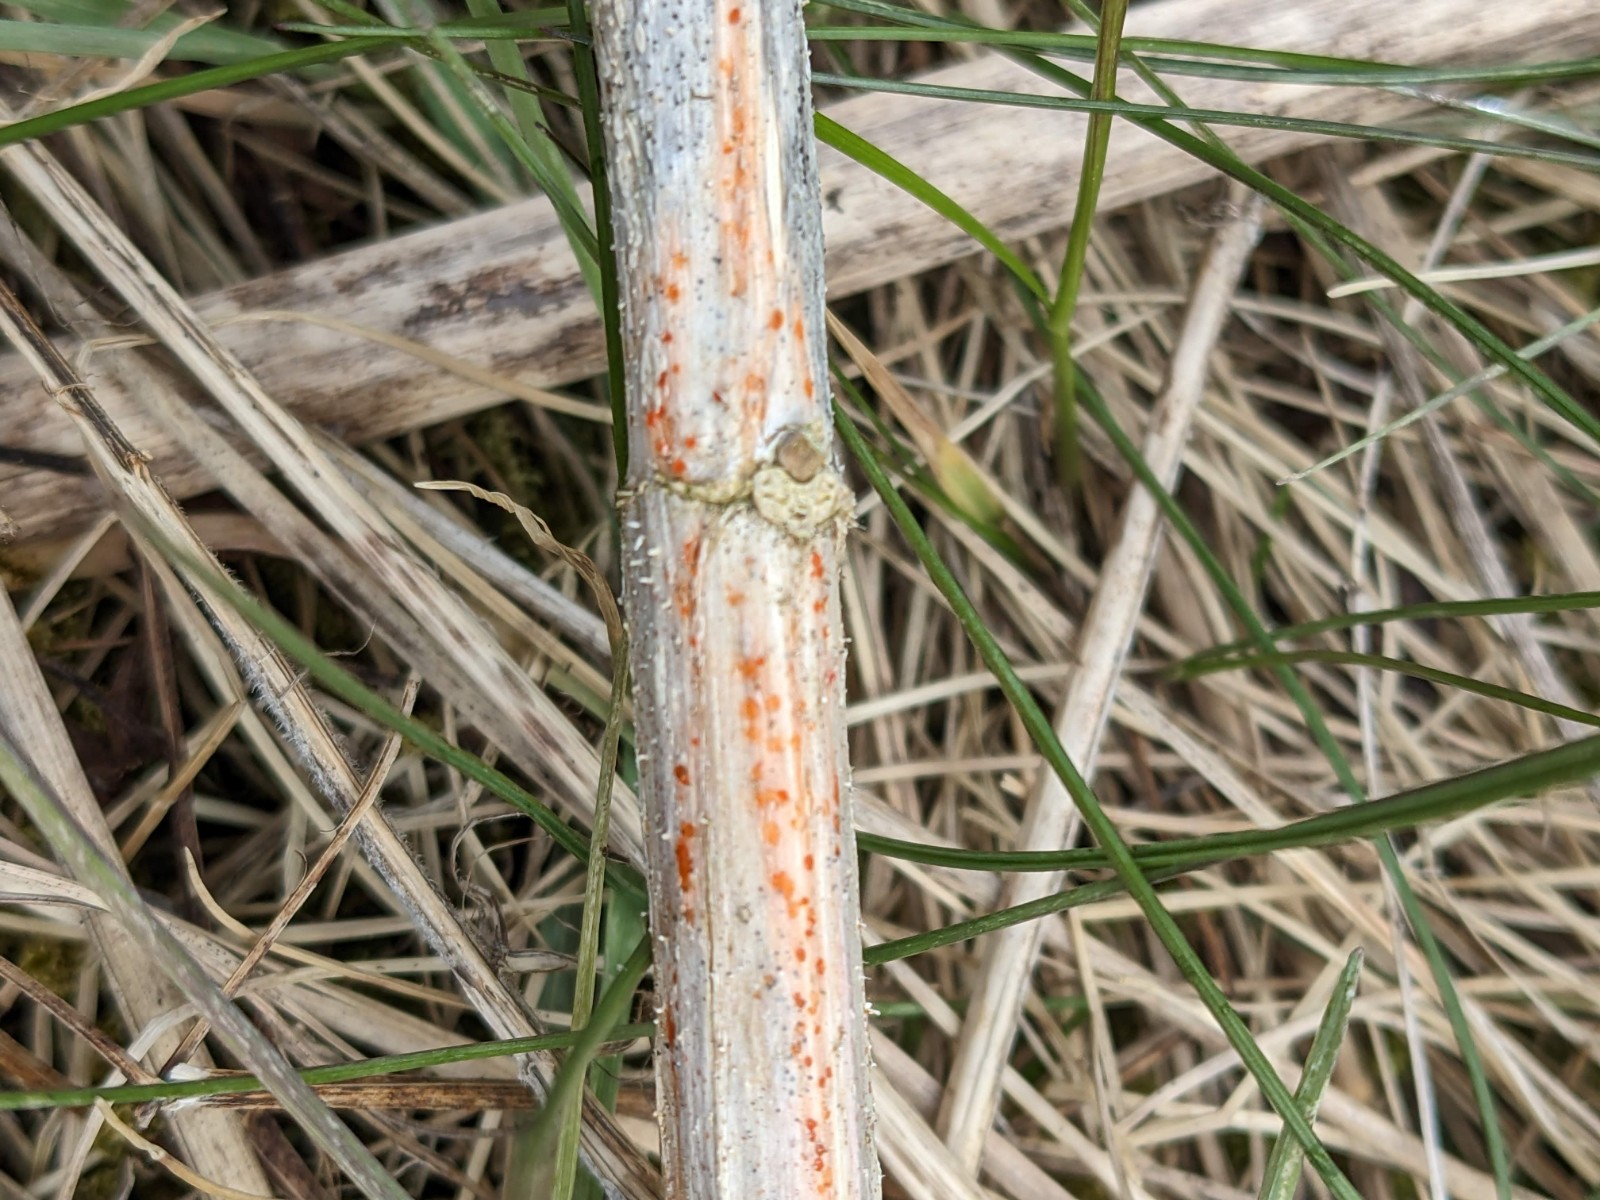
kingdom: Fungi
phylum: Ascomycota
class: Leotiomycetes
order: Helotiales
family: Calloriaceae
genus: Calloria
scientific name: Calloria urticae
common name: nælde-orangeskive
